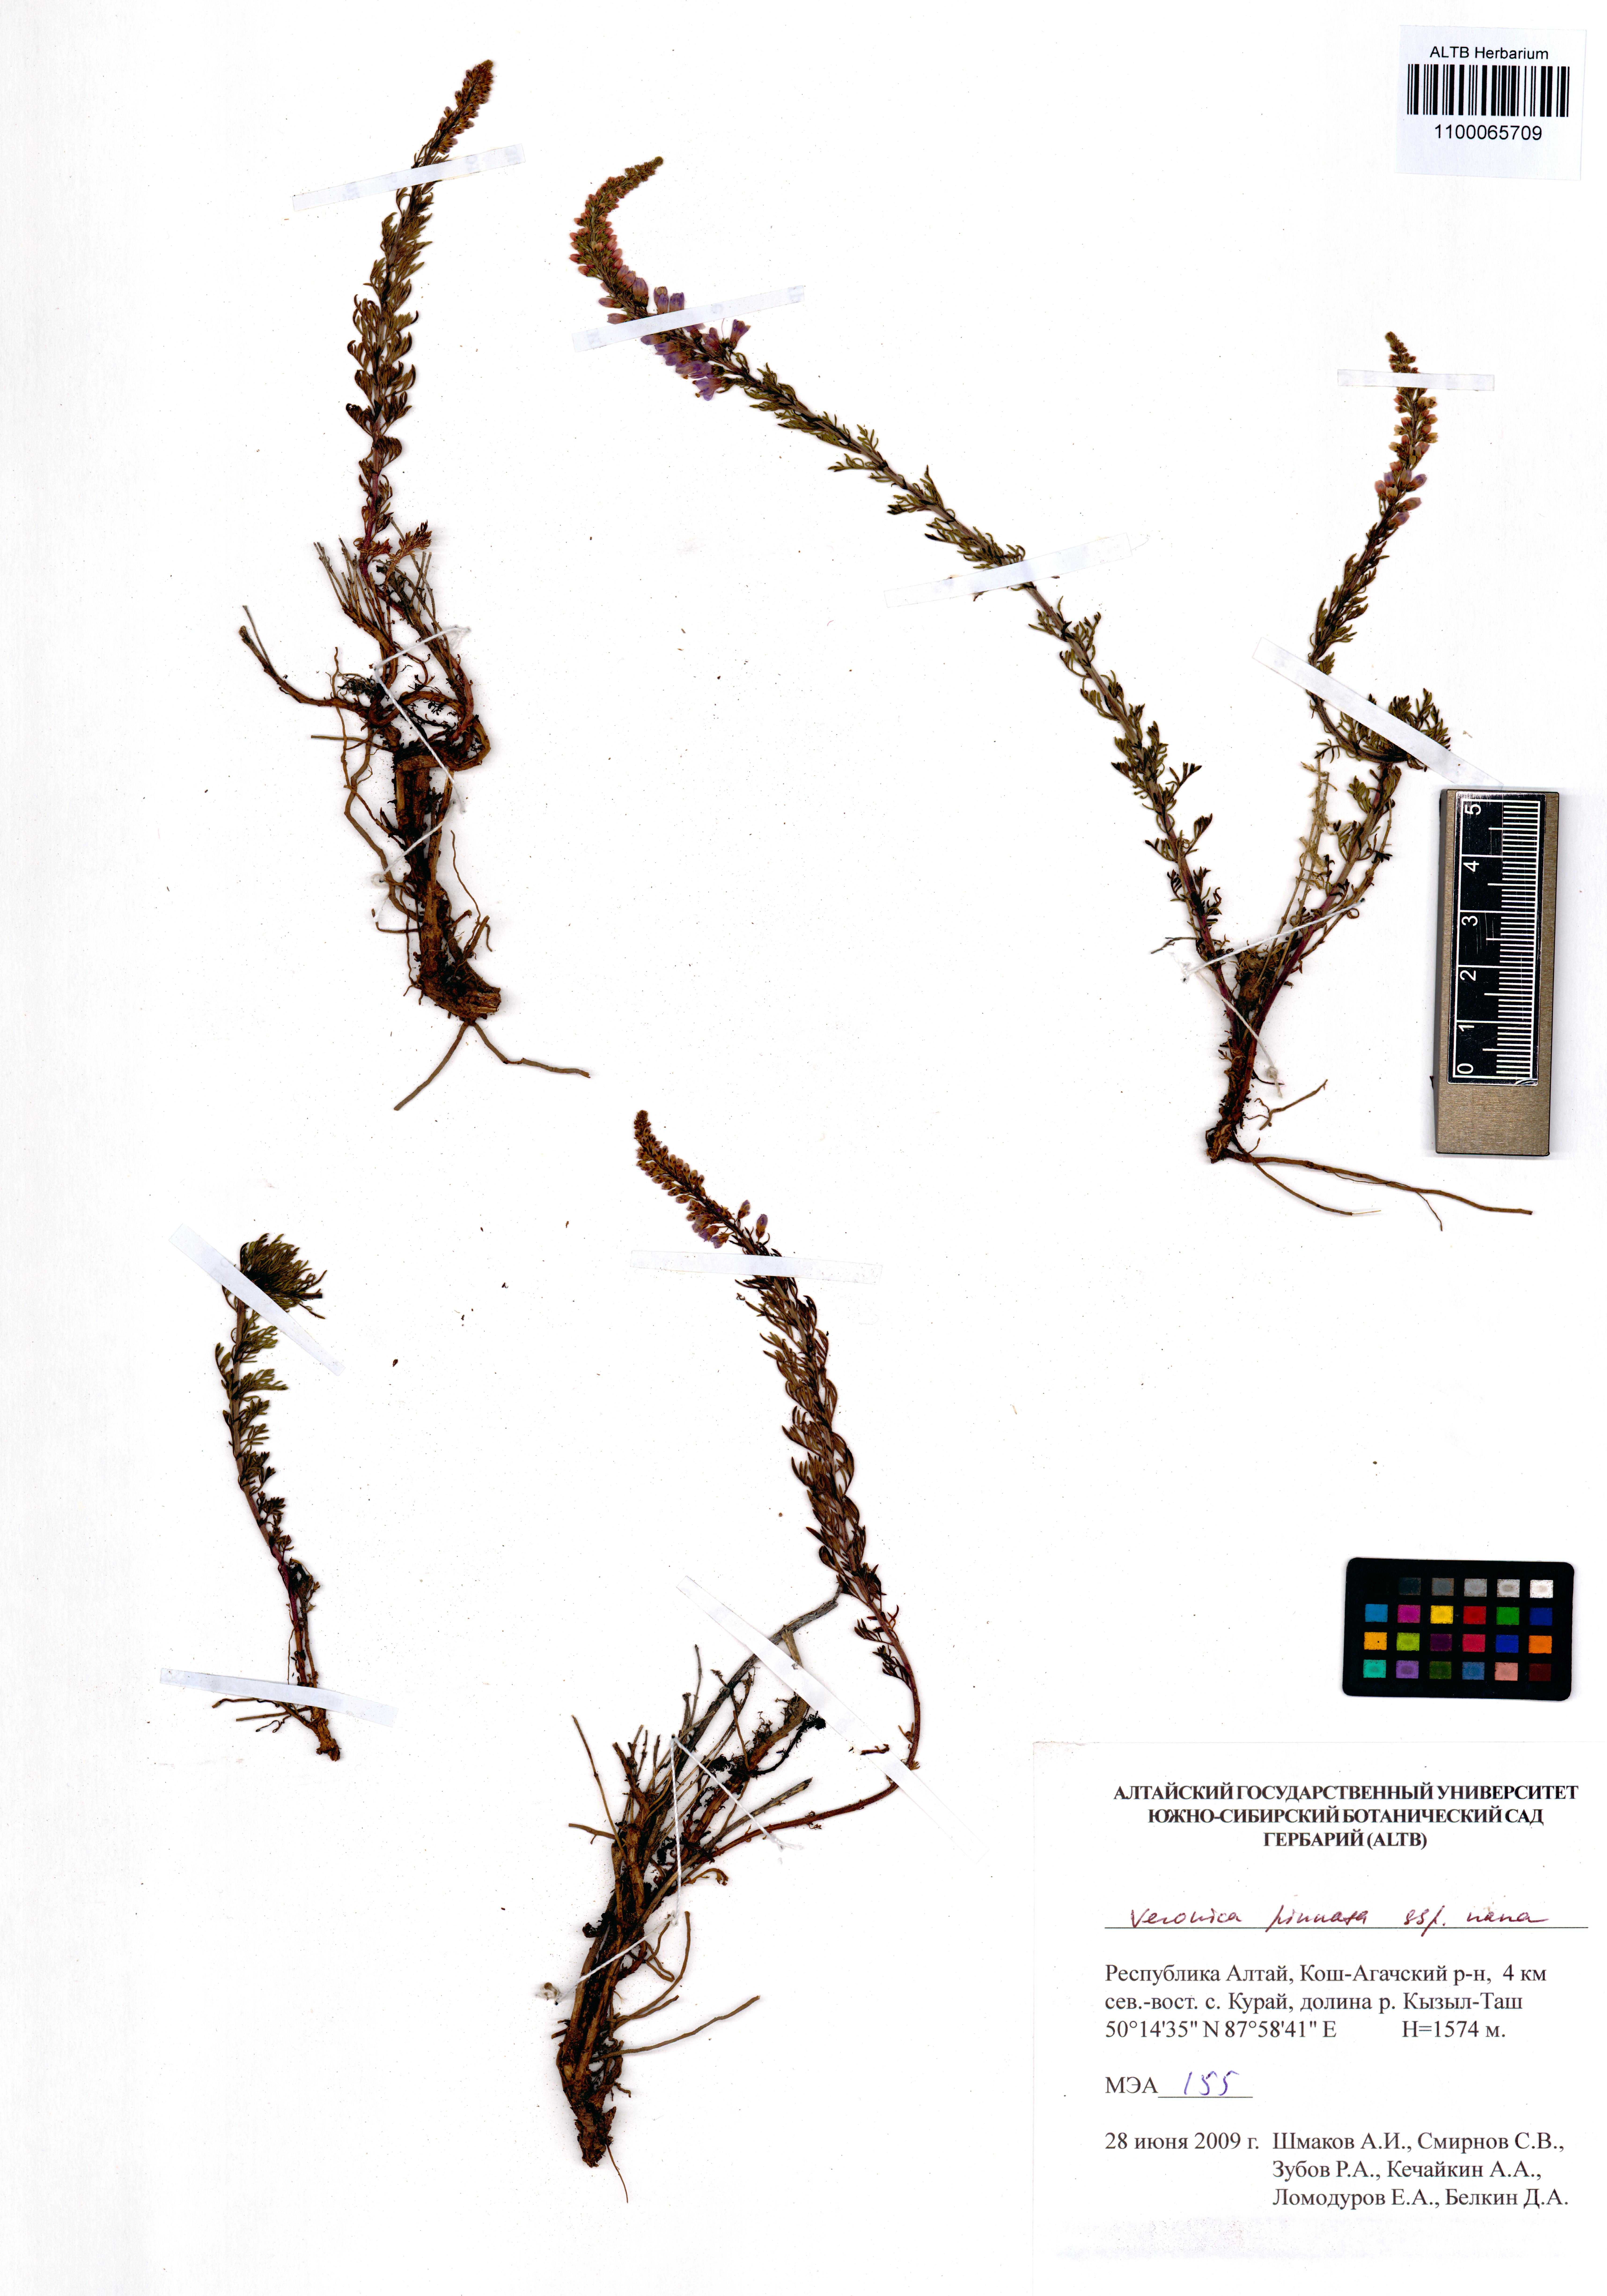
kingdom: Plantae
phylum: Tracheophyta
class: Magnoliopsida
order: Lamiales
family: Plantaginaceae
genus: Veronica
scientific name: Veronica pinnata
